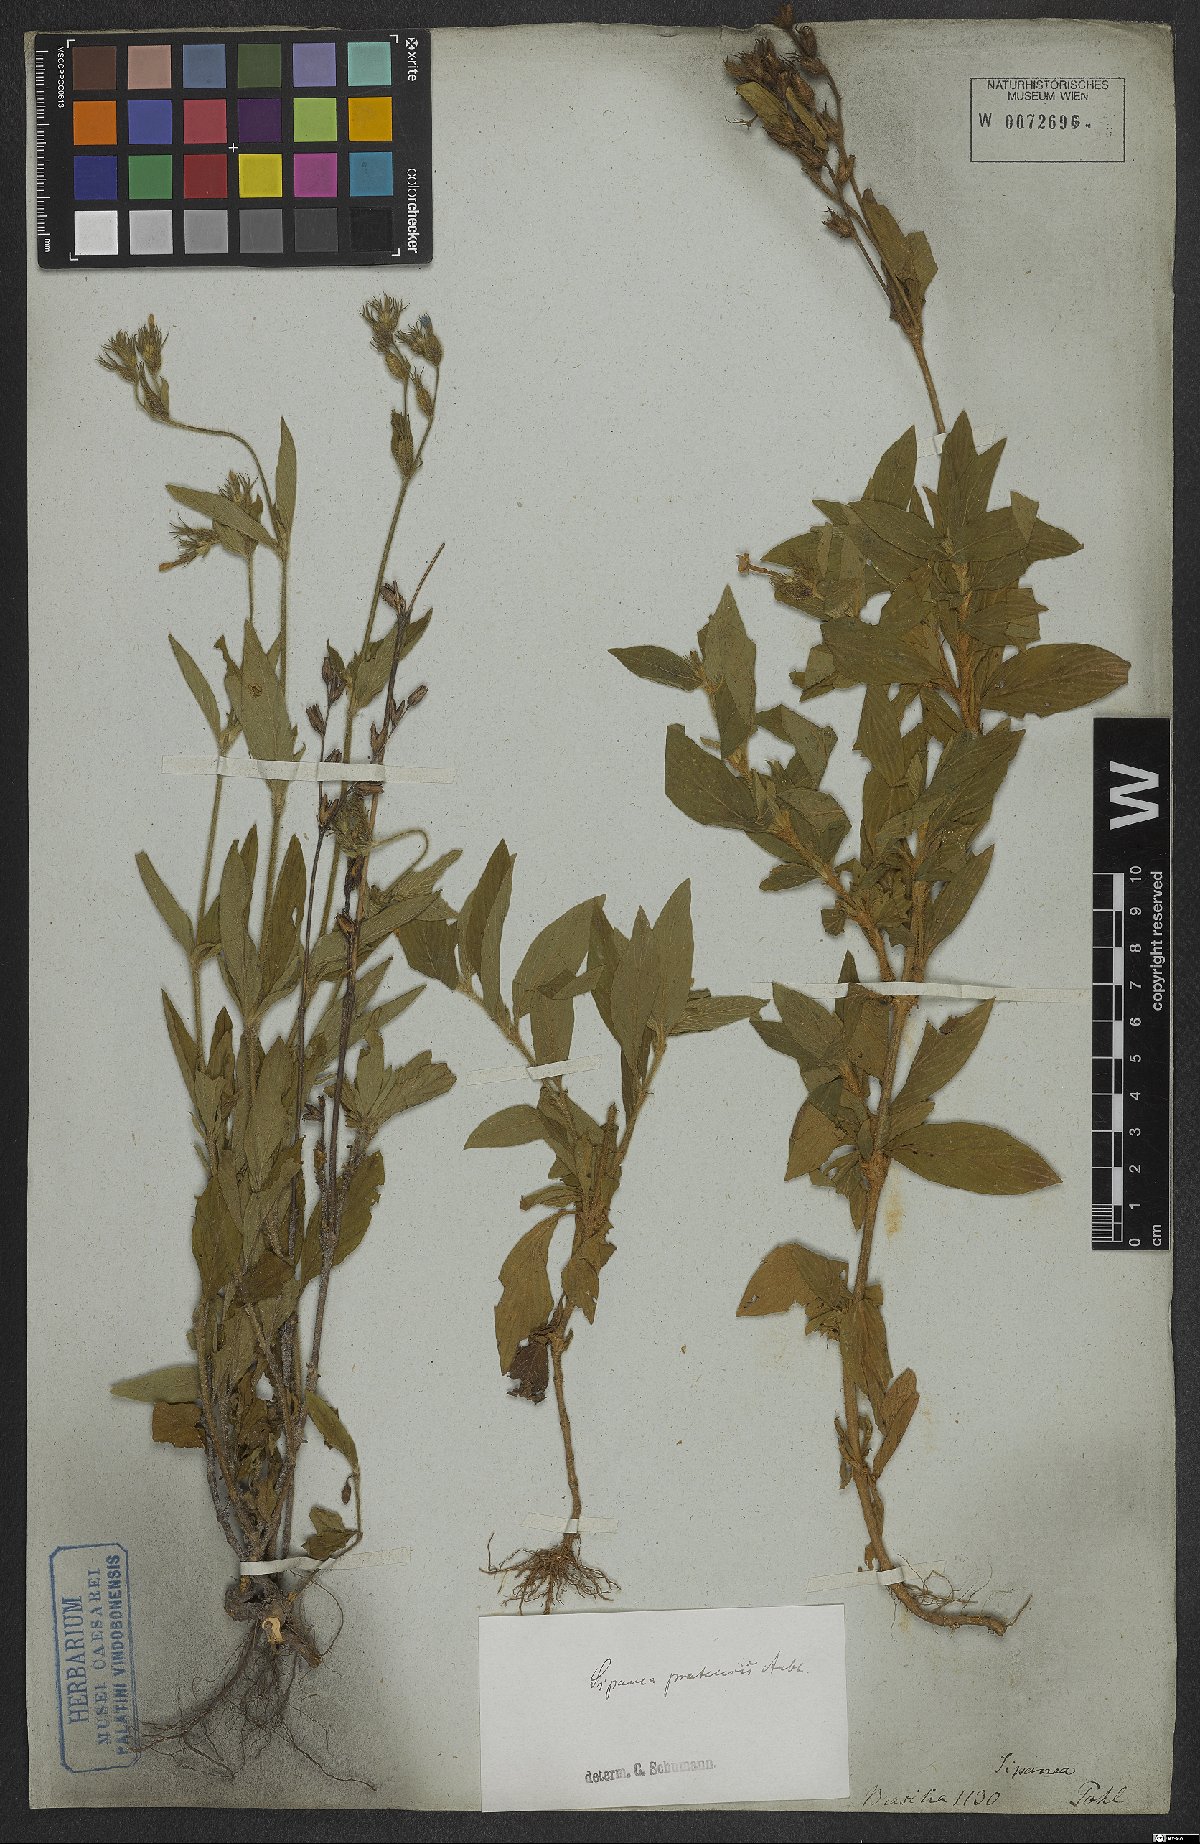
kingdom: Plantae
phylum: Tracheophyta
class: Magnoliopsida
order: Gentianales
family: Rubiaceae
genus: Sipanea
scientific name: Sipanea pratensis
